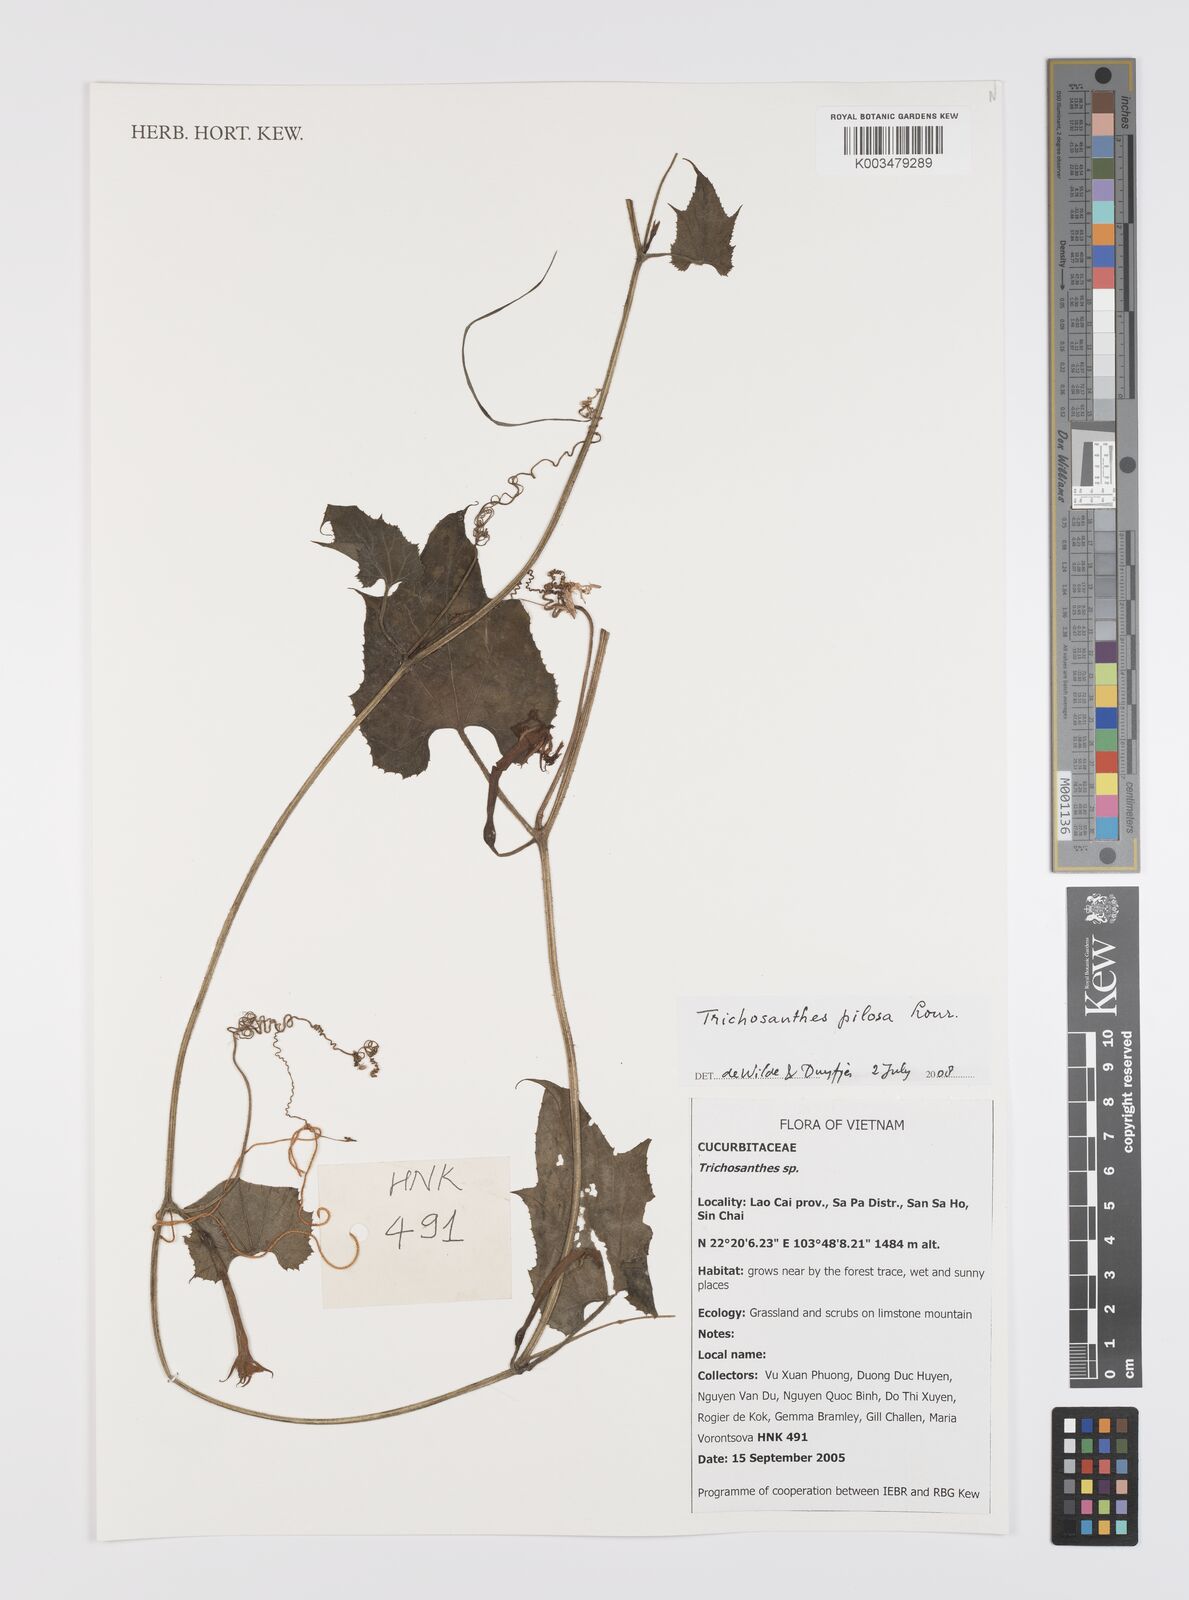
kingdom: Plantae
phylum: Tracheophyta
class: Magnoliopsida
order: Cucurbitales
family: Cucurbitaceae
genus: Trichosanthes
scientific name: Trichosanthes pilosa
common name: Snake gourd
